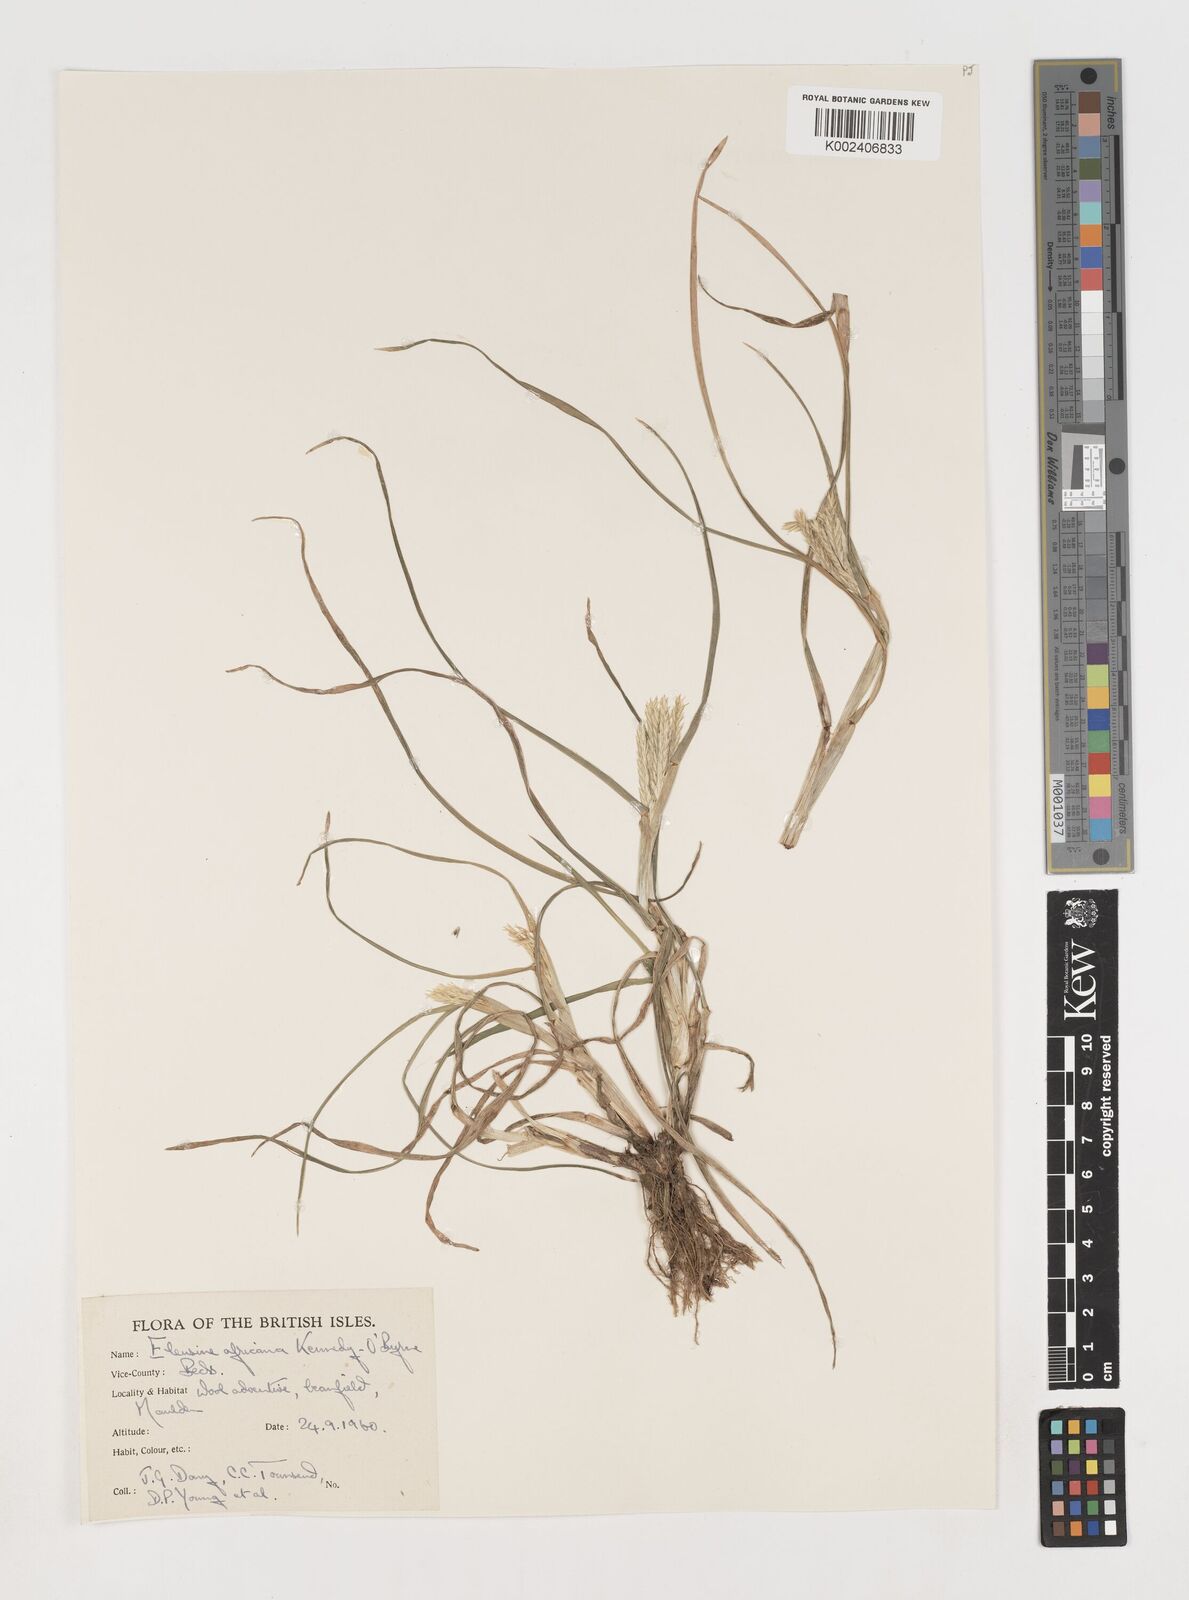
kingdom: Plantae
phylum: Tracheophyta
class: Liliopsida
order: Poales
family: Poaceae
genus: Eleusine
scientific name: Eleusine africana
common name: Wild african finger millet
